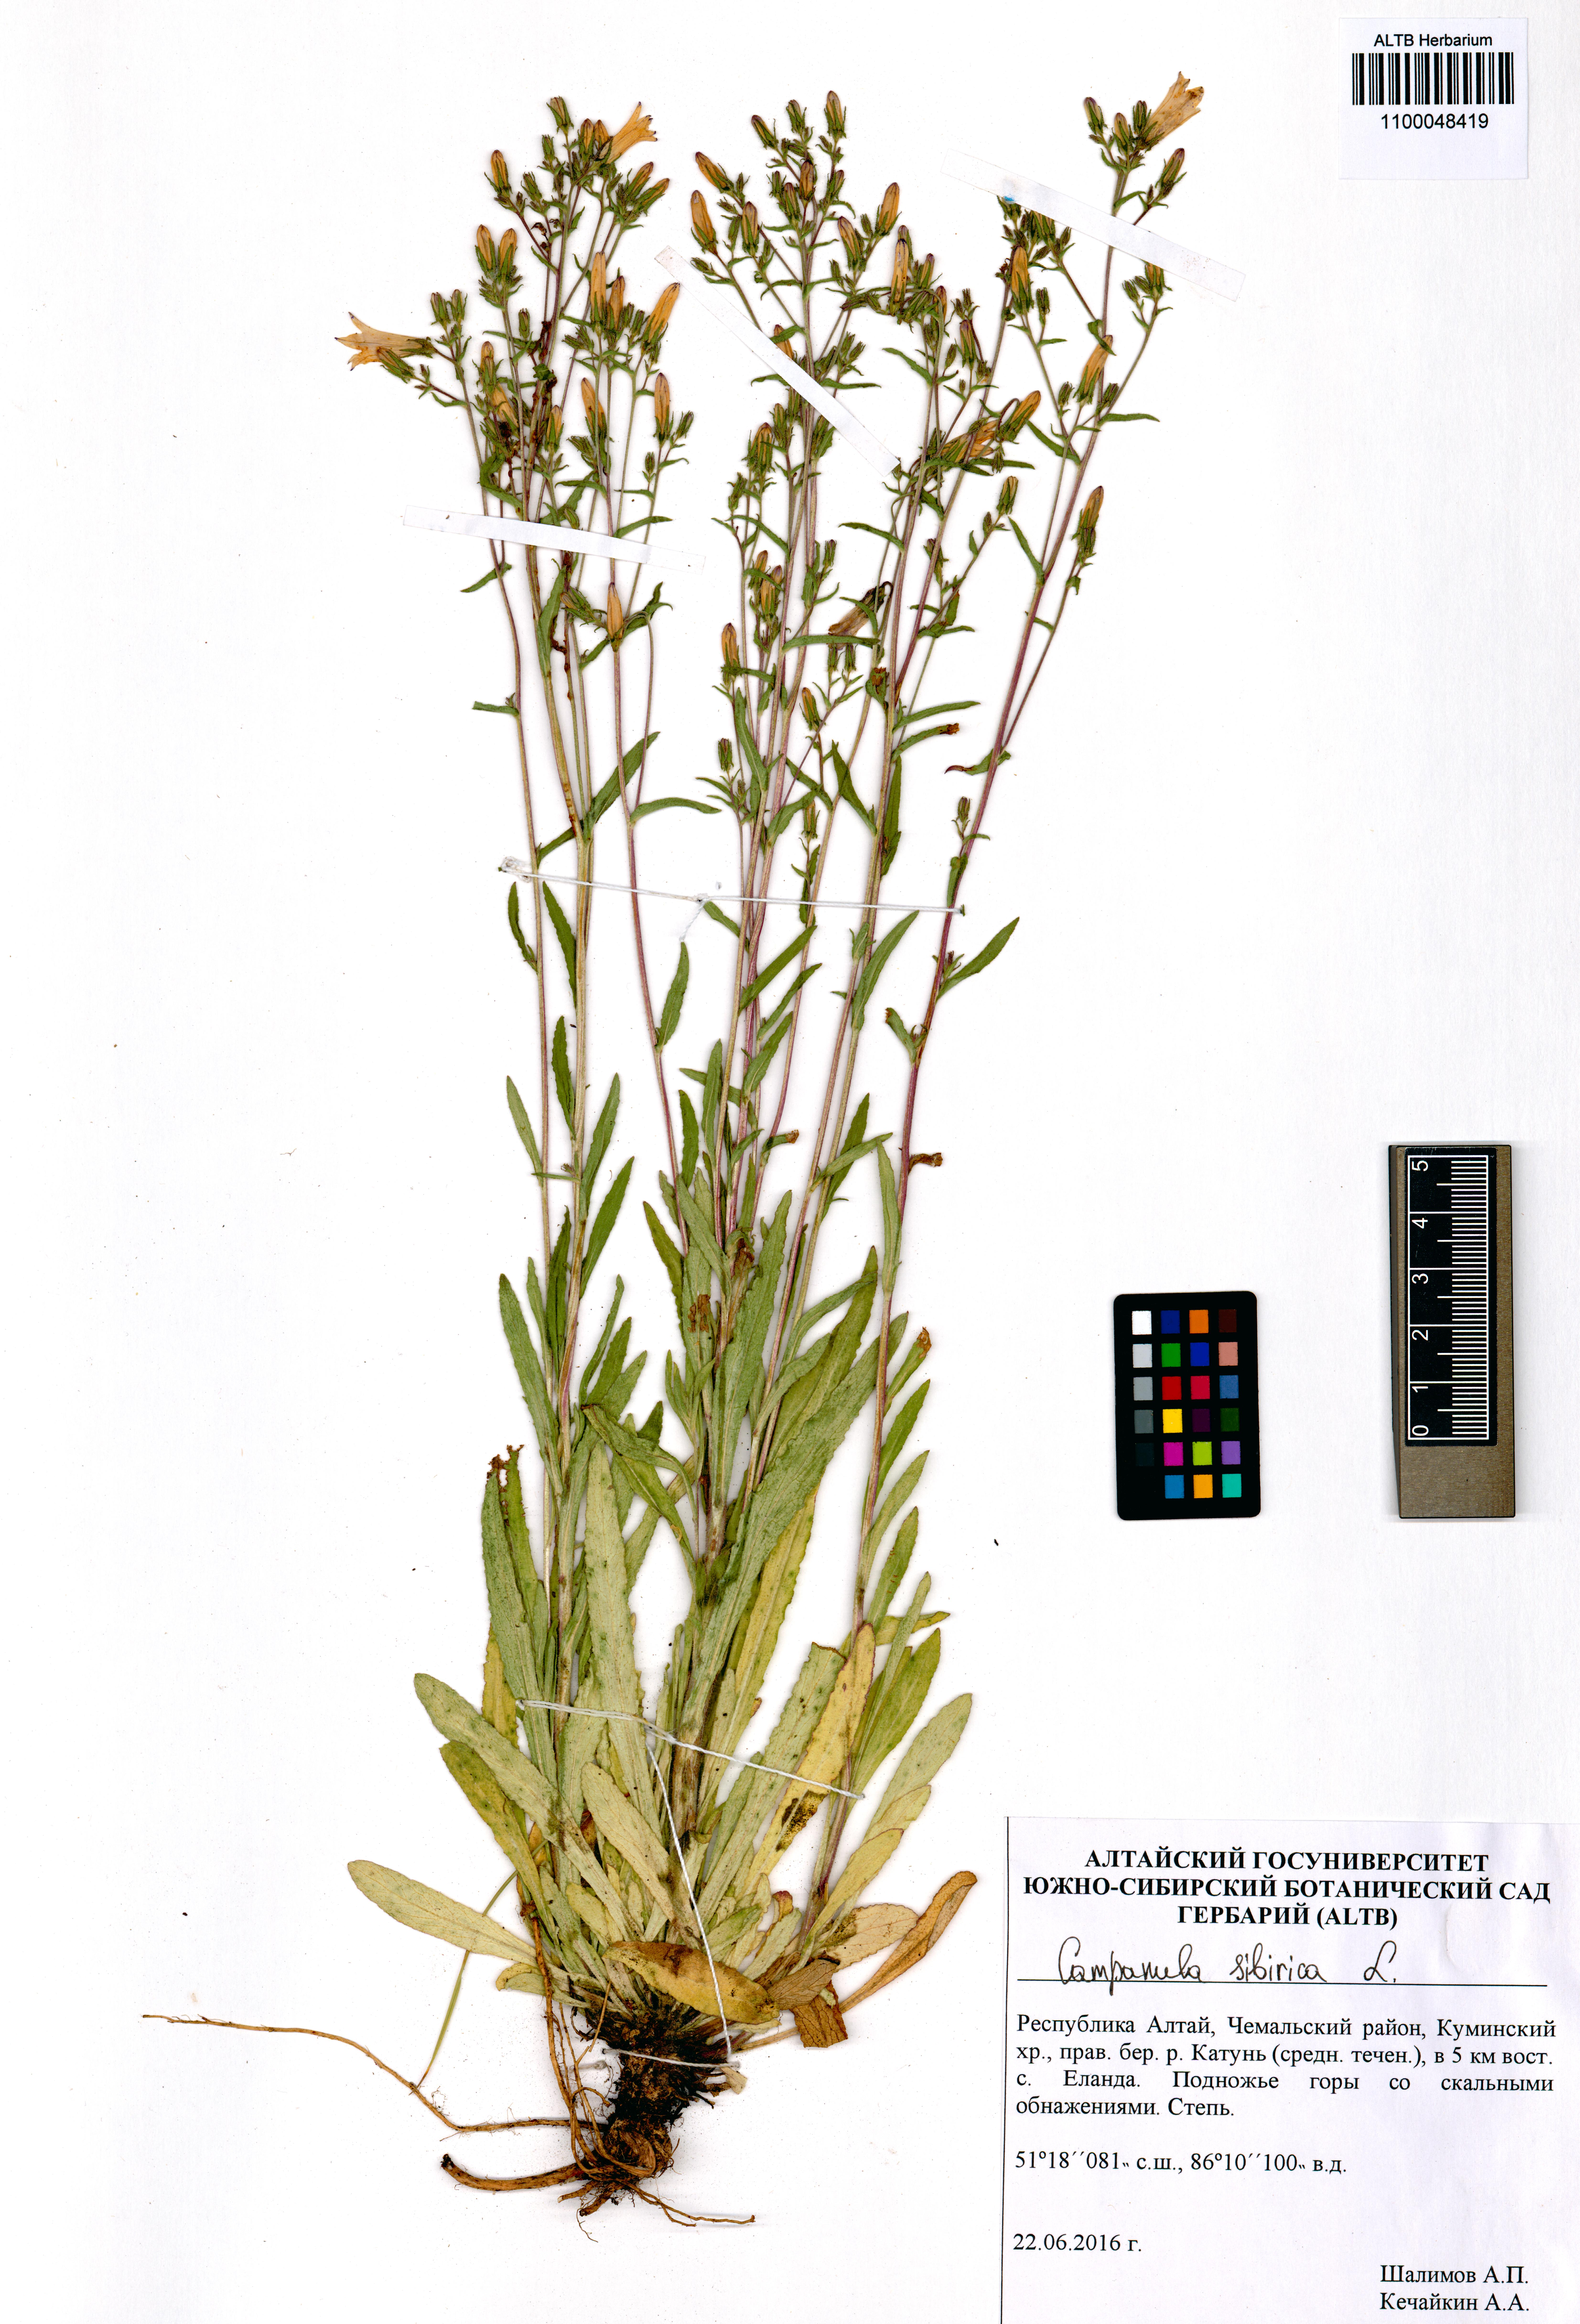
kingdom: Plantae
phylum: Tracheophyta
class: Magnoliopsida
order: Asterales
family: Campanulaceae
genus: Campanula
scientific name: Campanula sibirica
